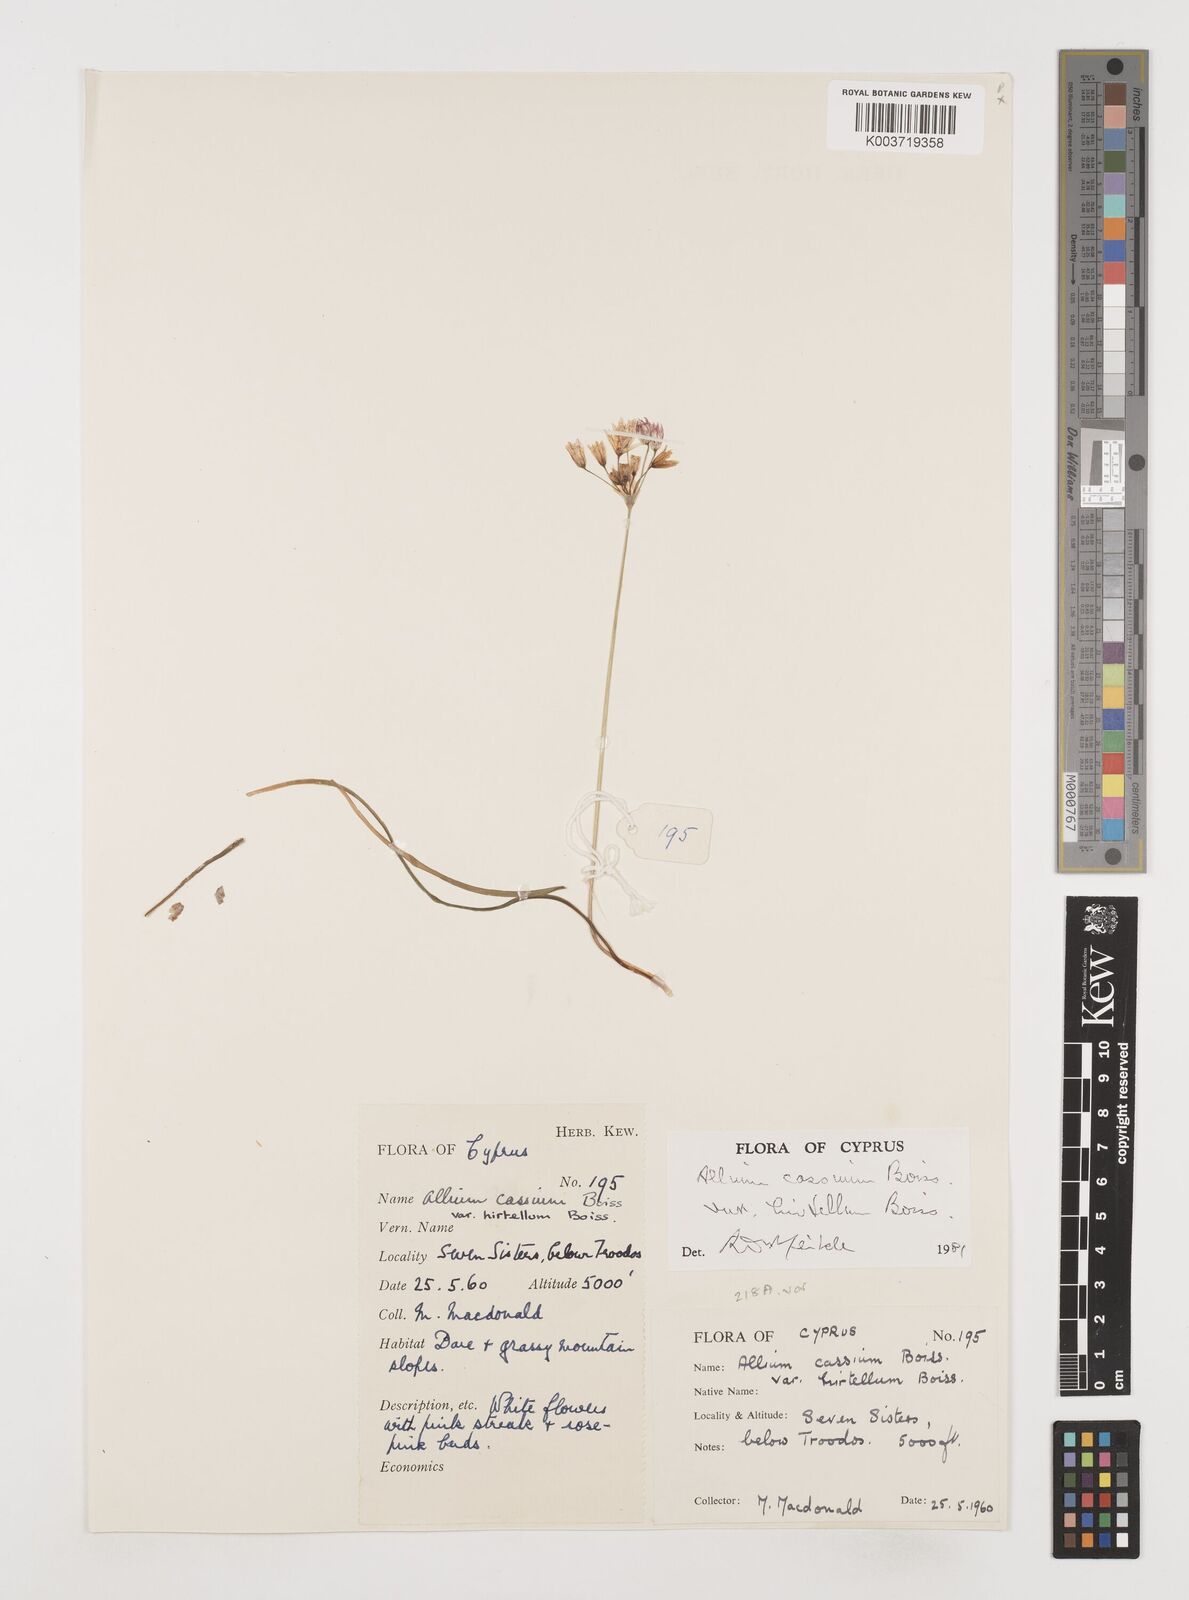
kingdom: Plantae
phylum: Tracheophyta
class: Liliopsida
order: Asparagales
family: Amaryllidaceae
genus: Allium
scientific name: Allium cassium
